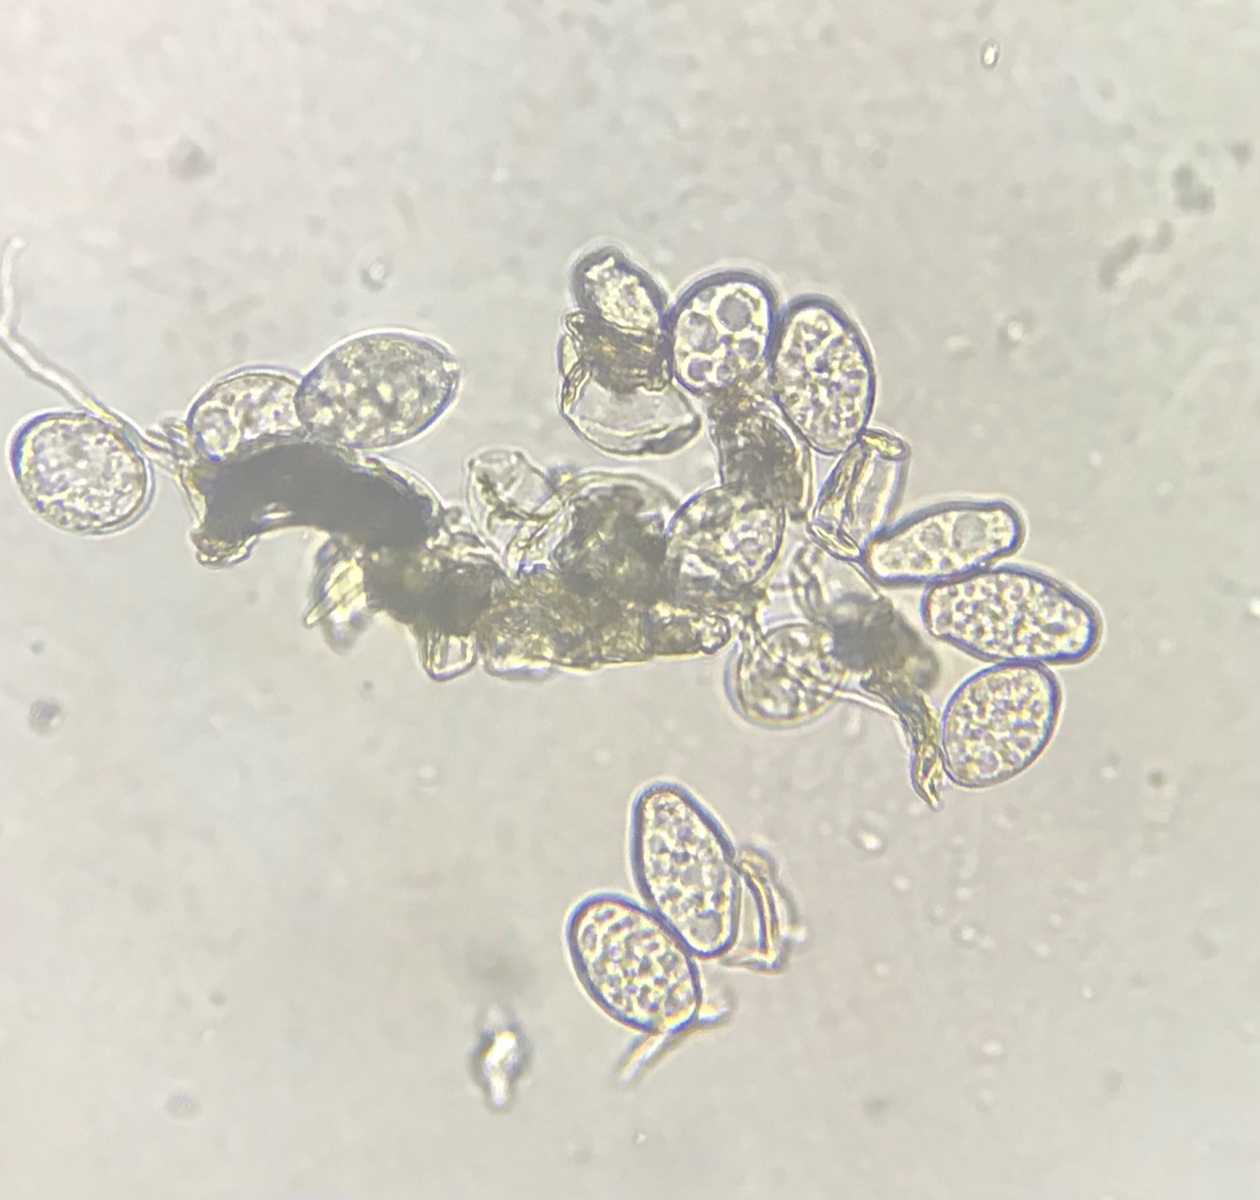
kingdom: Fungi
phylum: Ascomycota
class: Leotiomycetes
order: Helotiales
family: Erysiphaceae
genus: Golovinomyces
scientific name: Golovinomyces macrocarpus
